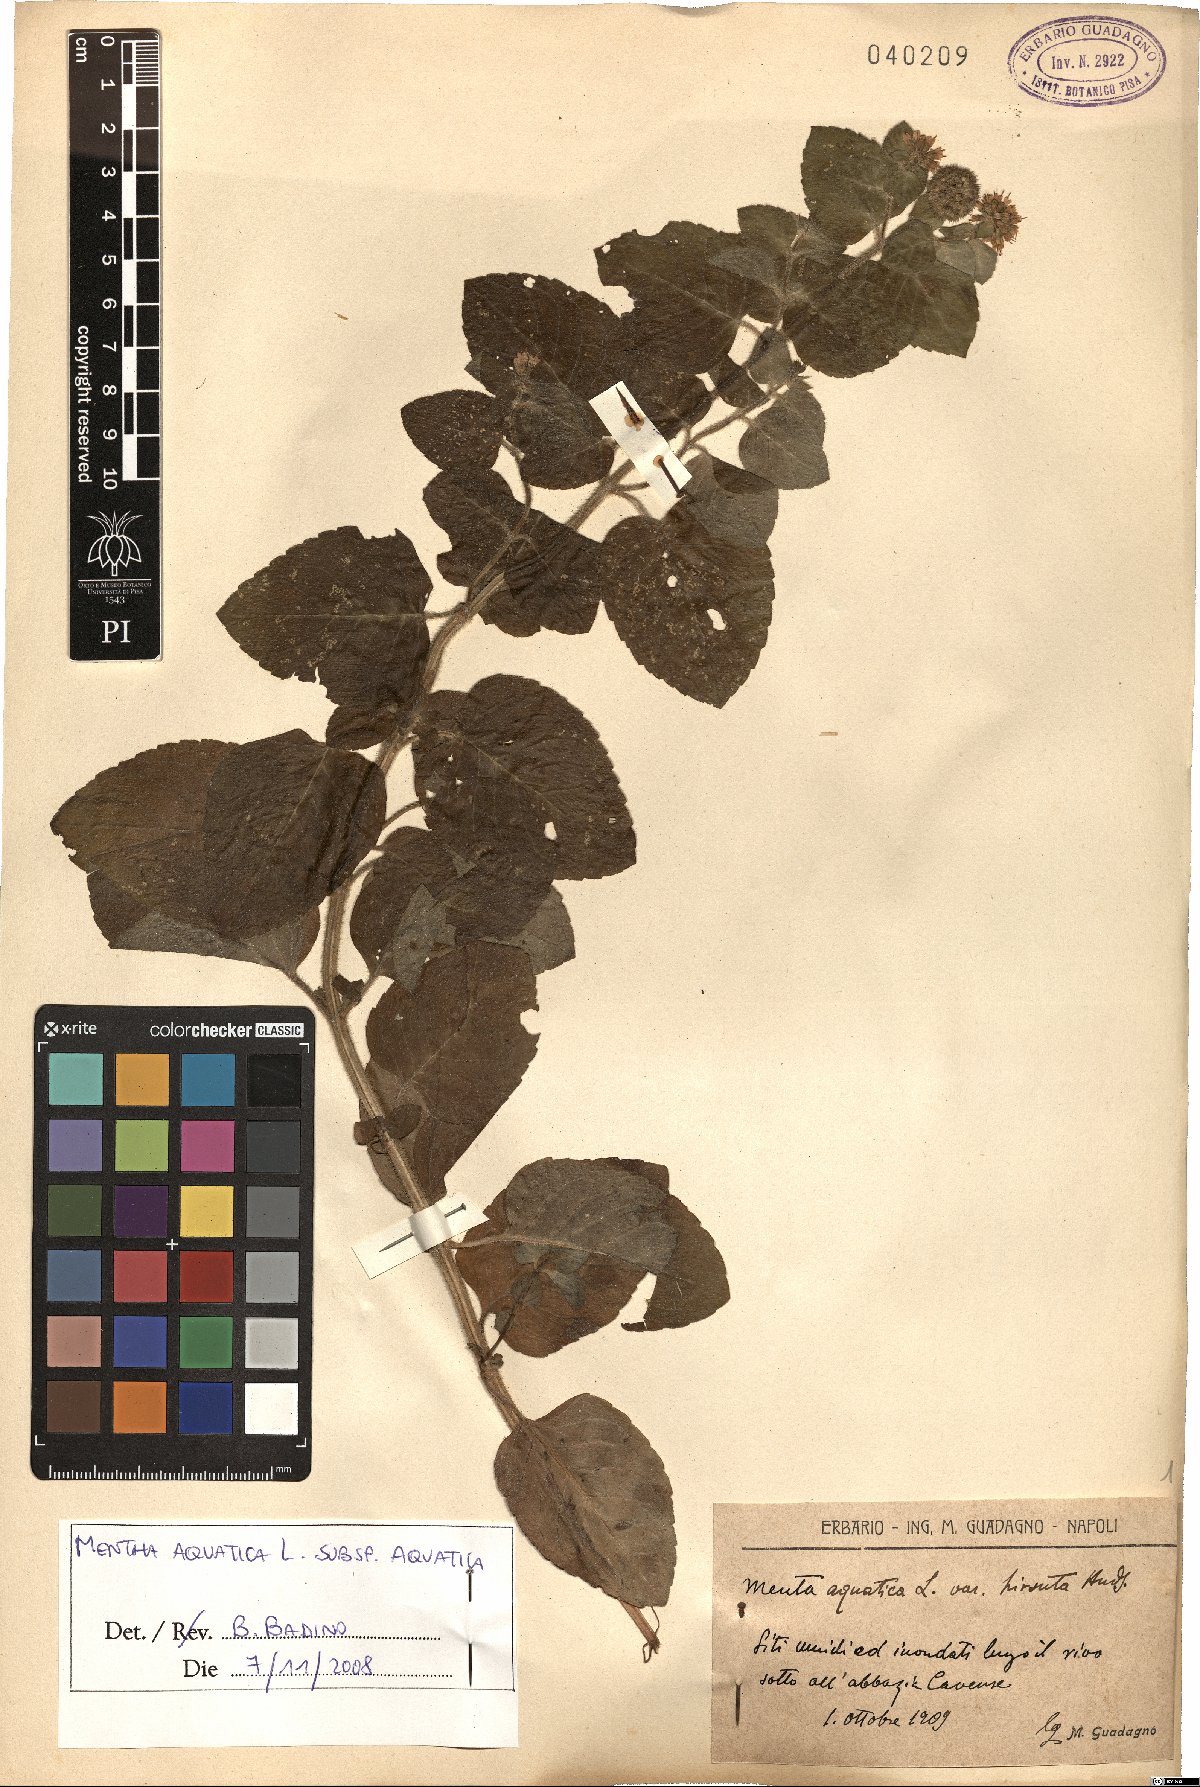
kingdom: Plantae
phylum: Tracheophyta
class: Magnoliopsida
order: Lamiales
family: Lamiaceae
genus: Mentha
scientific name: Mentha aquatica
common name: Water mint
